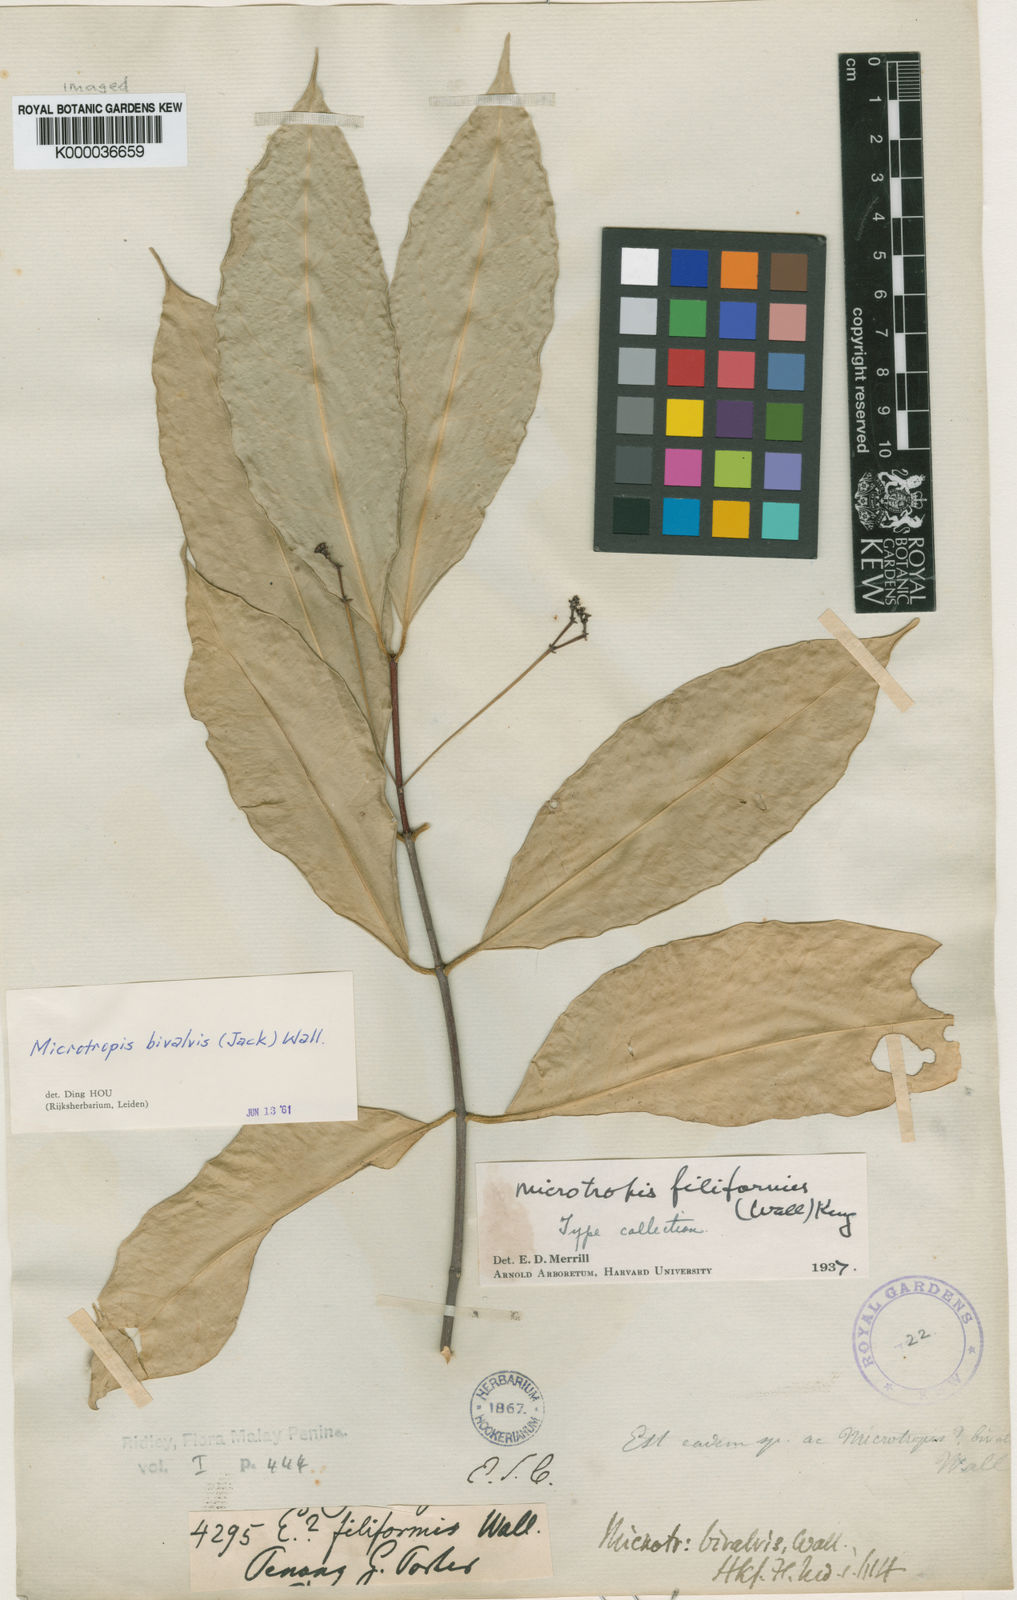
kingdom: Plantae
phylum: Tracheophyta
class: Magnoliopsida
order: Celastrales
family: Celastraceae
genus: Microtropis
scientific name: Microtropis bivalvis
